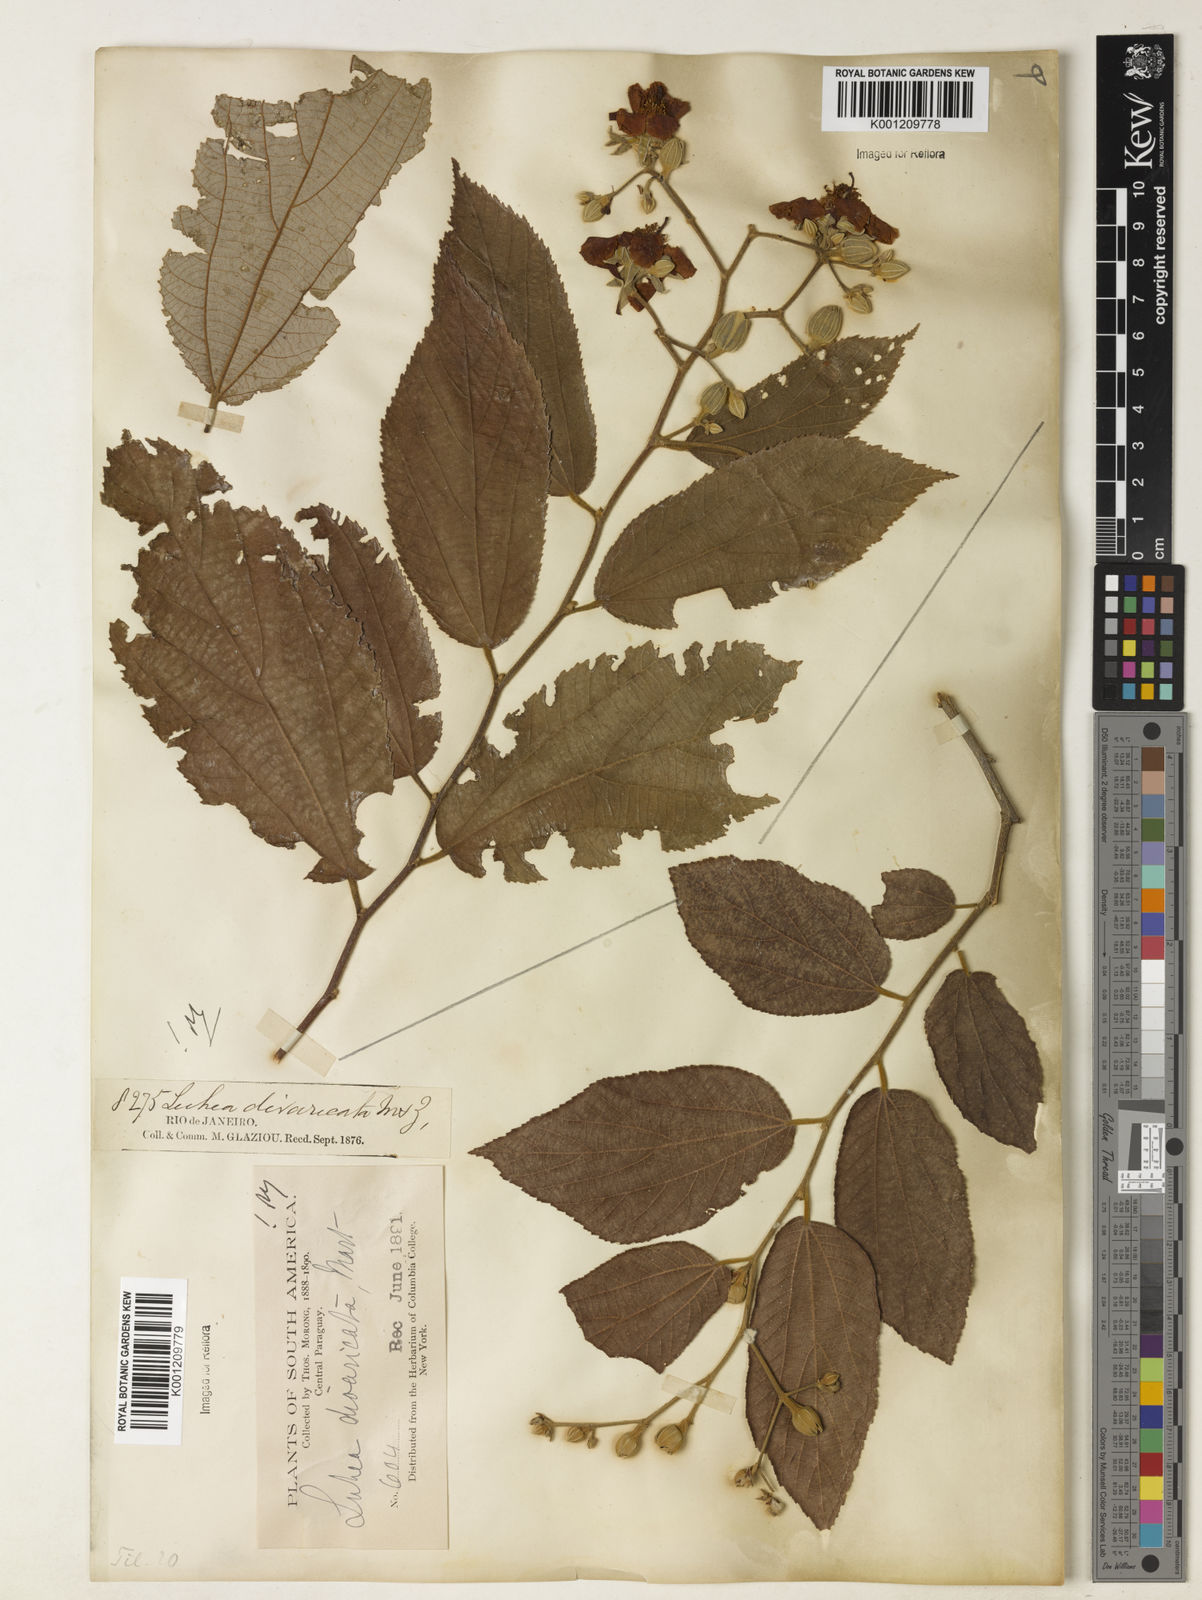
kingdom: Plantae
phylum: Tracheophyta
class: Magnoliopsida
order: Malvales
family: Malvaceae
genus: Luehea
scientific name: Luehea divaricata
